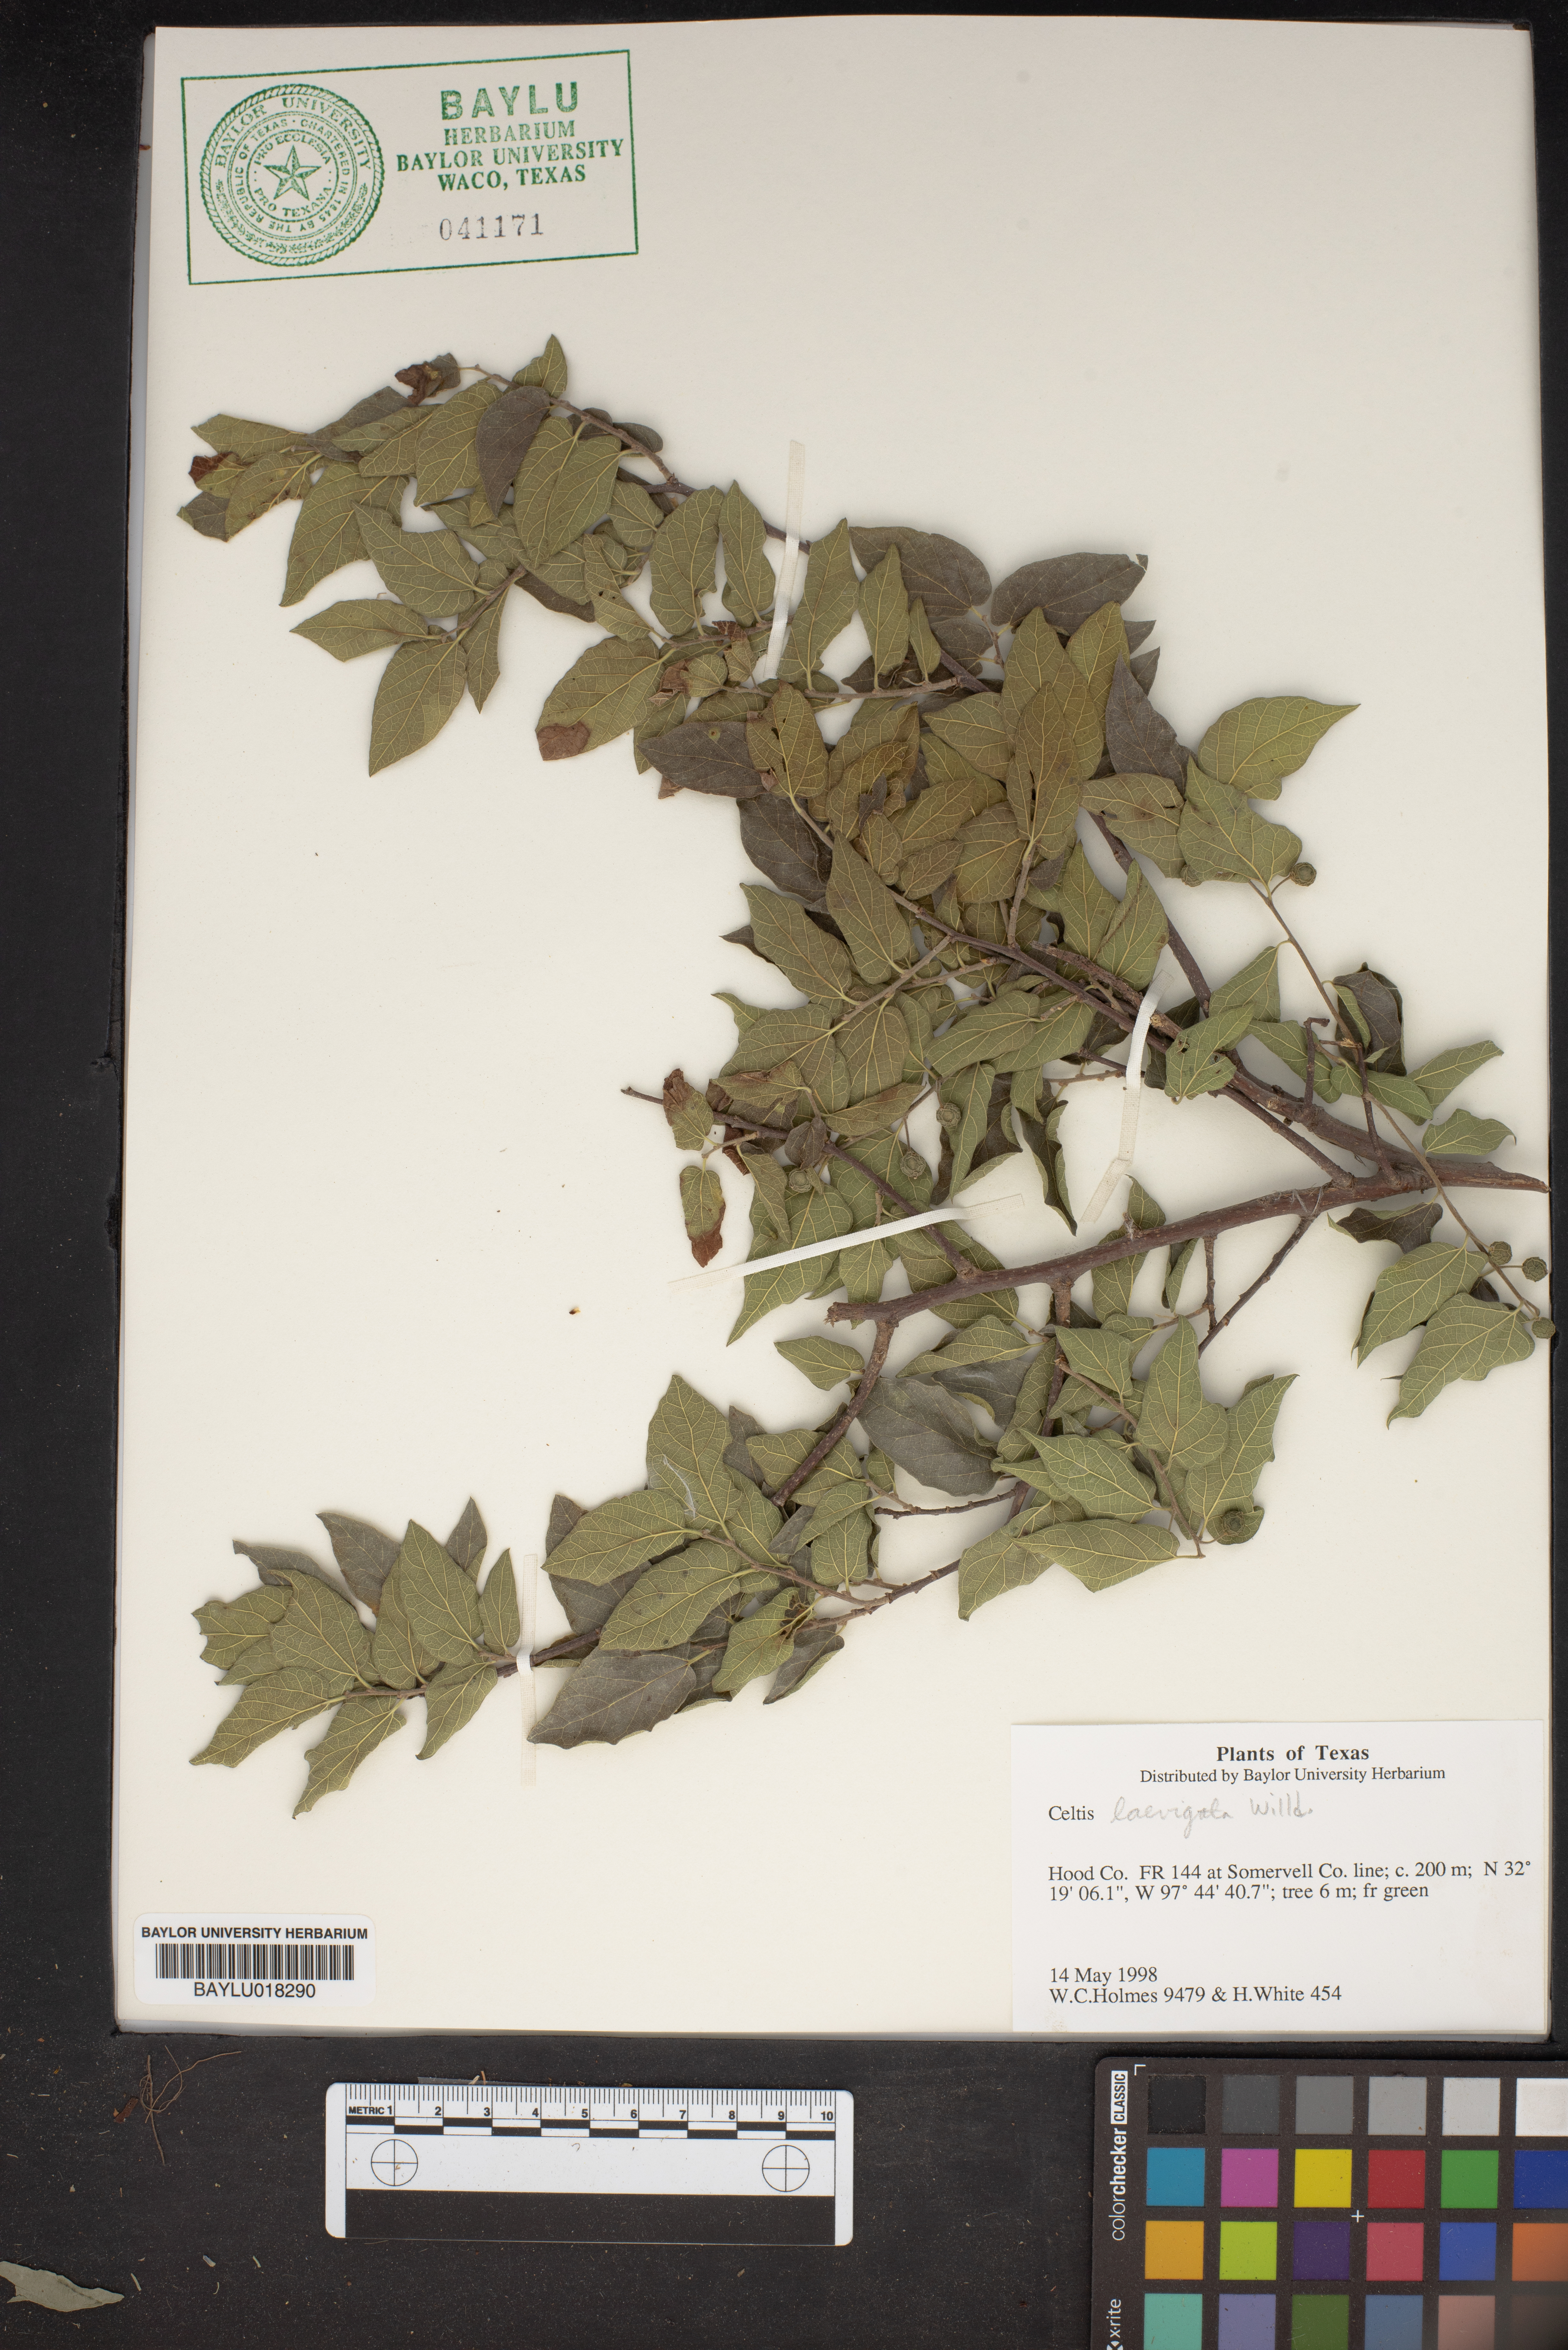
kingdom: Plantae
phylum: Tracheophyta
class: Magnoliopsida
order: Rosales
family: Cannabaceae
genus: Celtis
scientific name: Celtis laevigata
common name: Sugarberry
